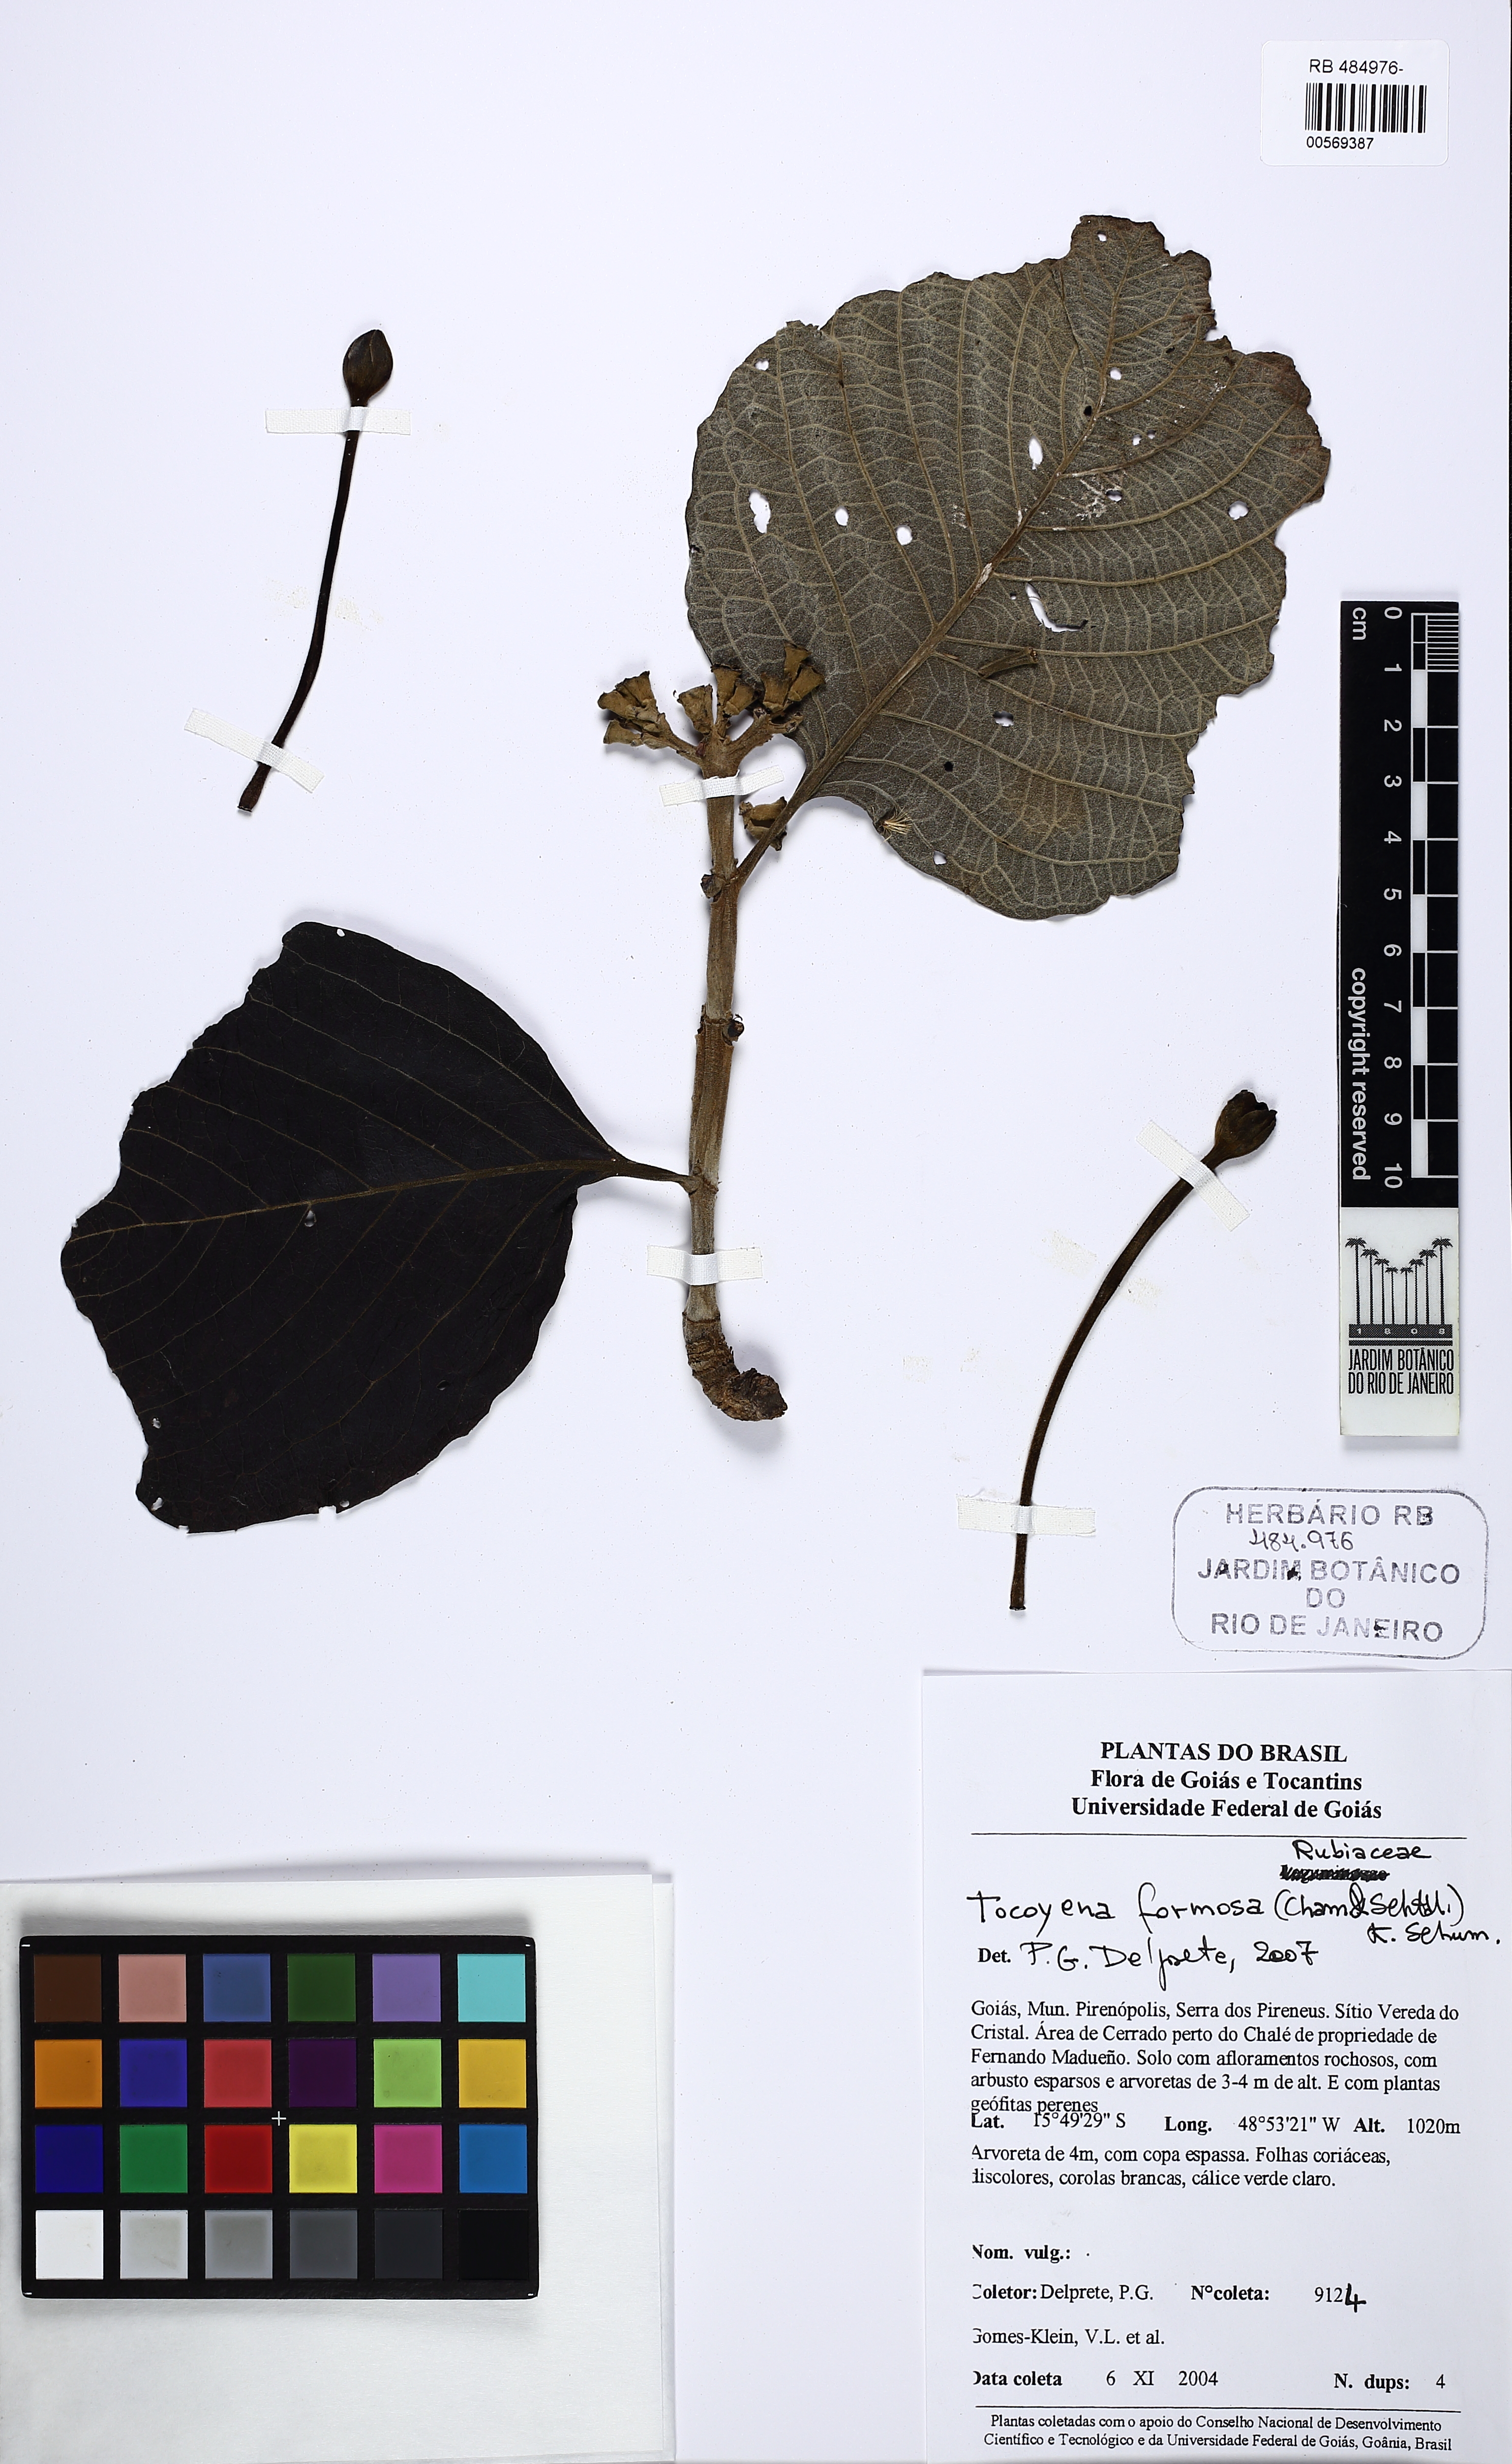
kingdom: Plantae
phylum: Tracheophyta
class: Magnoliopsida
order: Gentianales
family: Rubiaceae
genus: Tocoyena
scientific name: Tocoyena formosa
